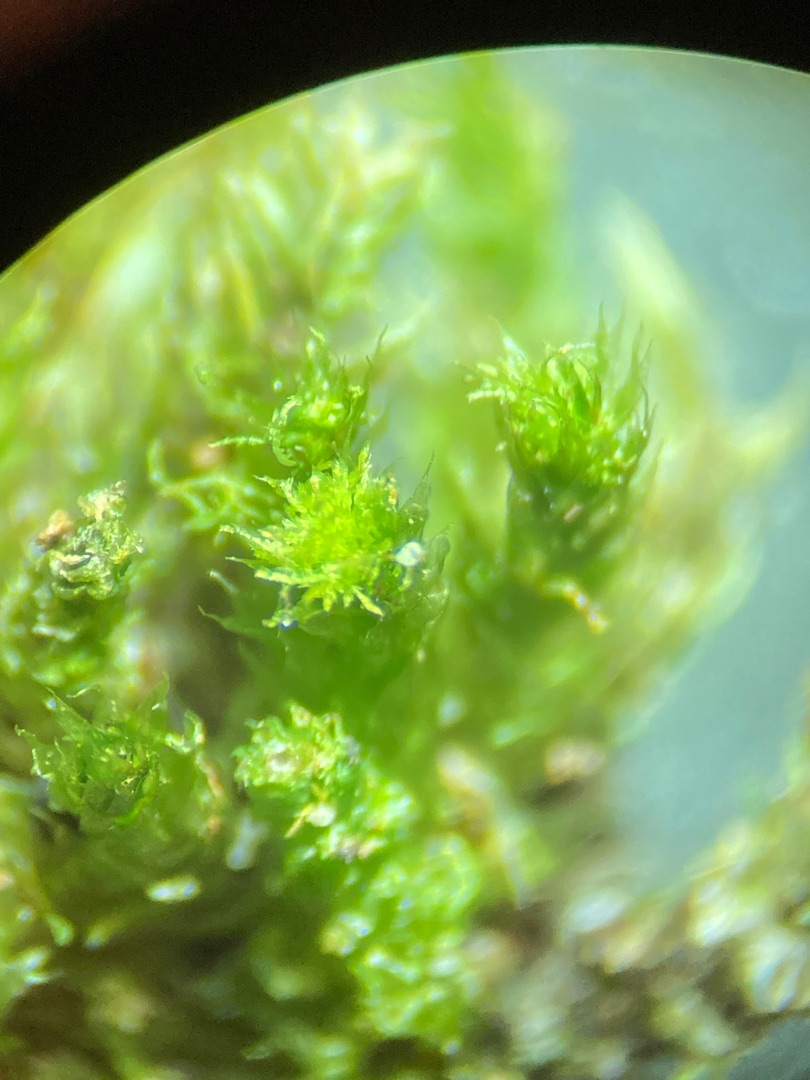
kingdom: Plantae
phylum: Bryophyta
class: Bryopsida
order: Hypnales
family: Plagiotheciaceae
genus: Pseudotaxiphyllum
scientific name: Pseudotaxiphyllum elegans
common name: Skinnende ynglegren
